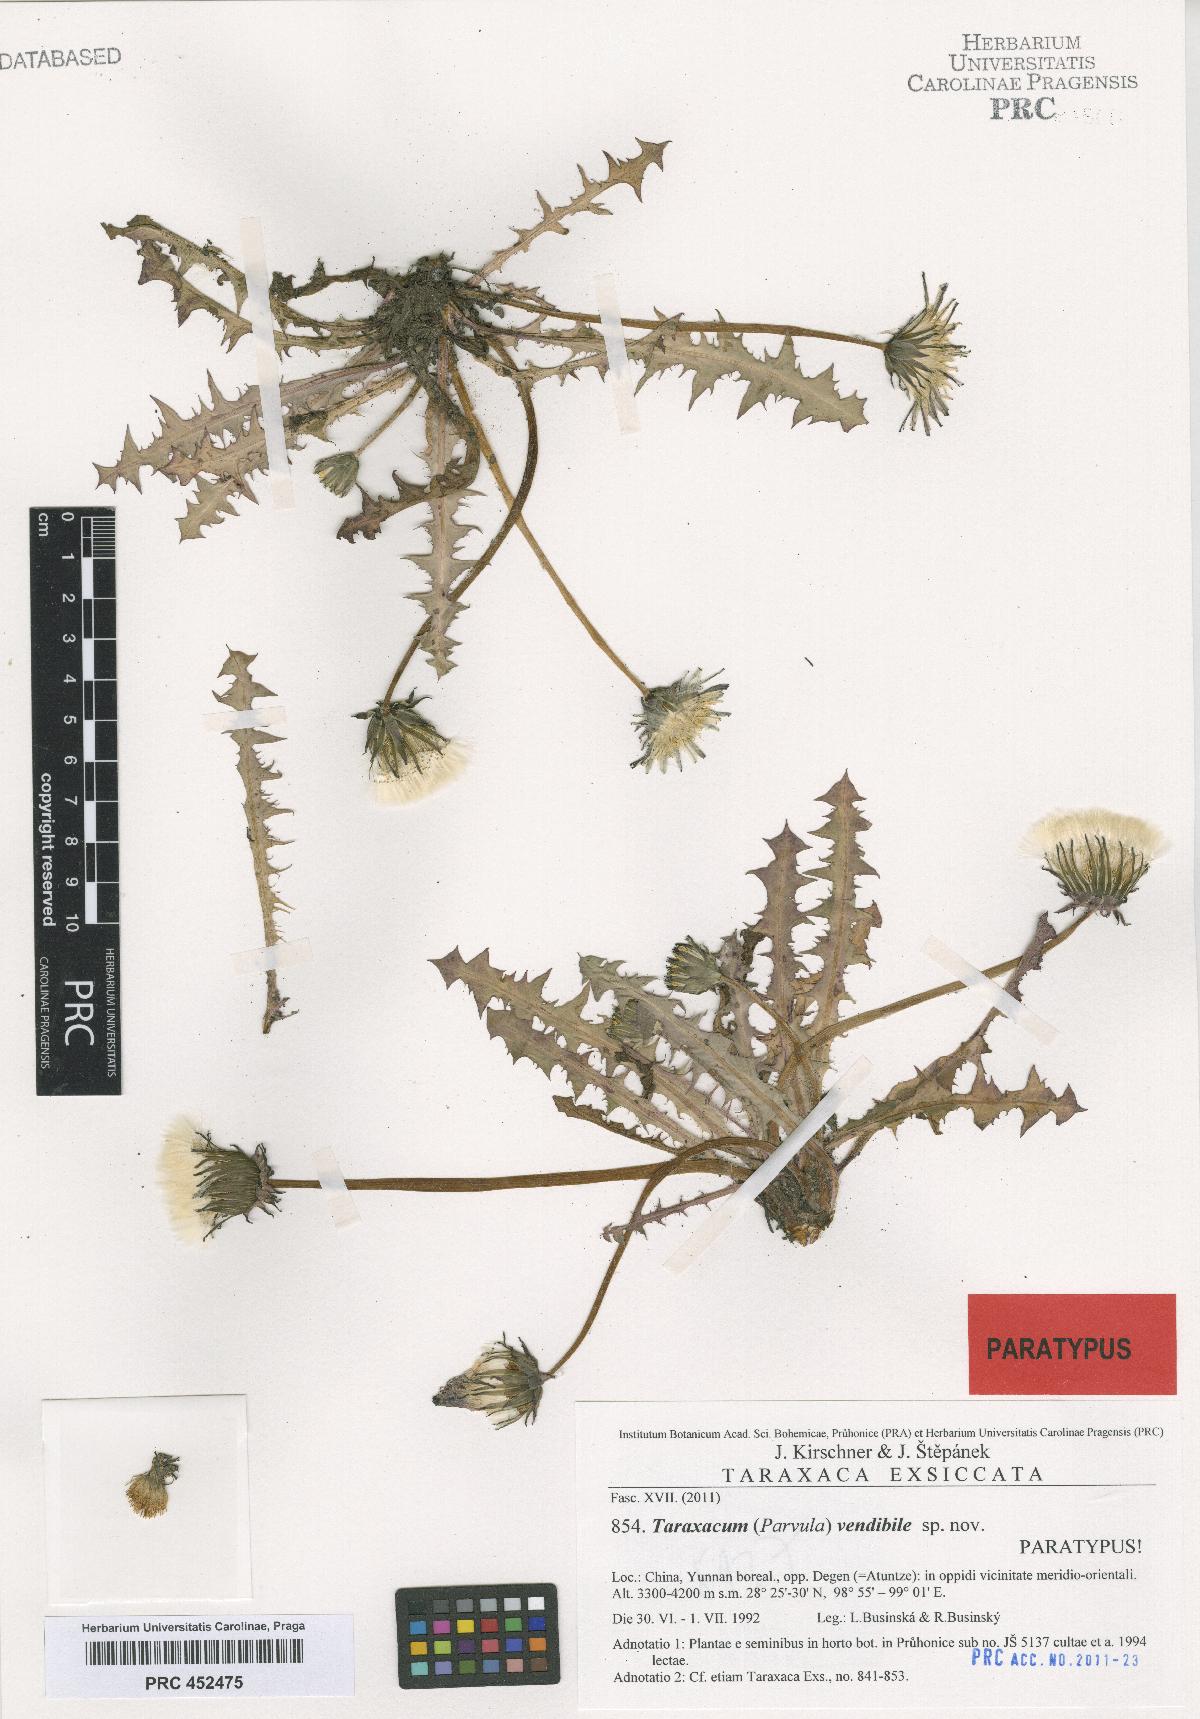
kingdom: Plantae
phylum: Tracheophyta
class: Magnoliopsida
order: Asterales
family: Asteraceae
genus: Taraxacum
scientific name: Taraxacum vendibile
